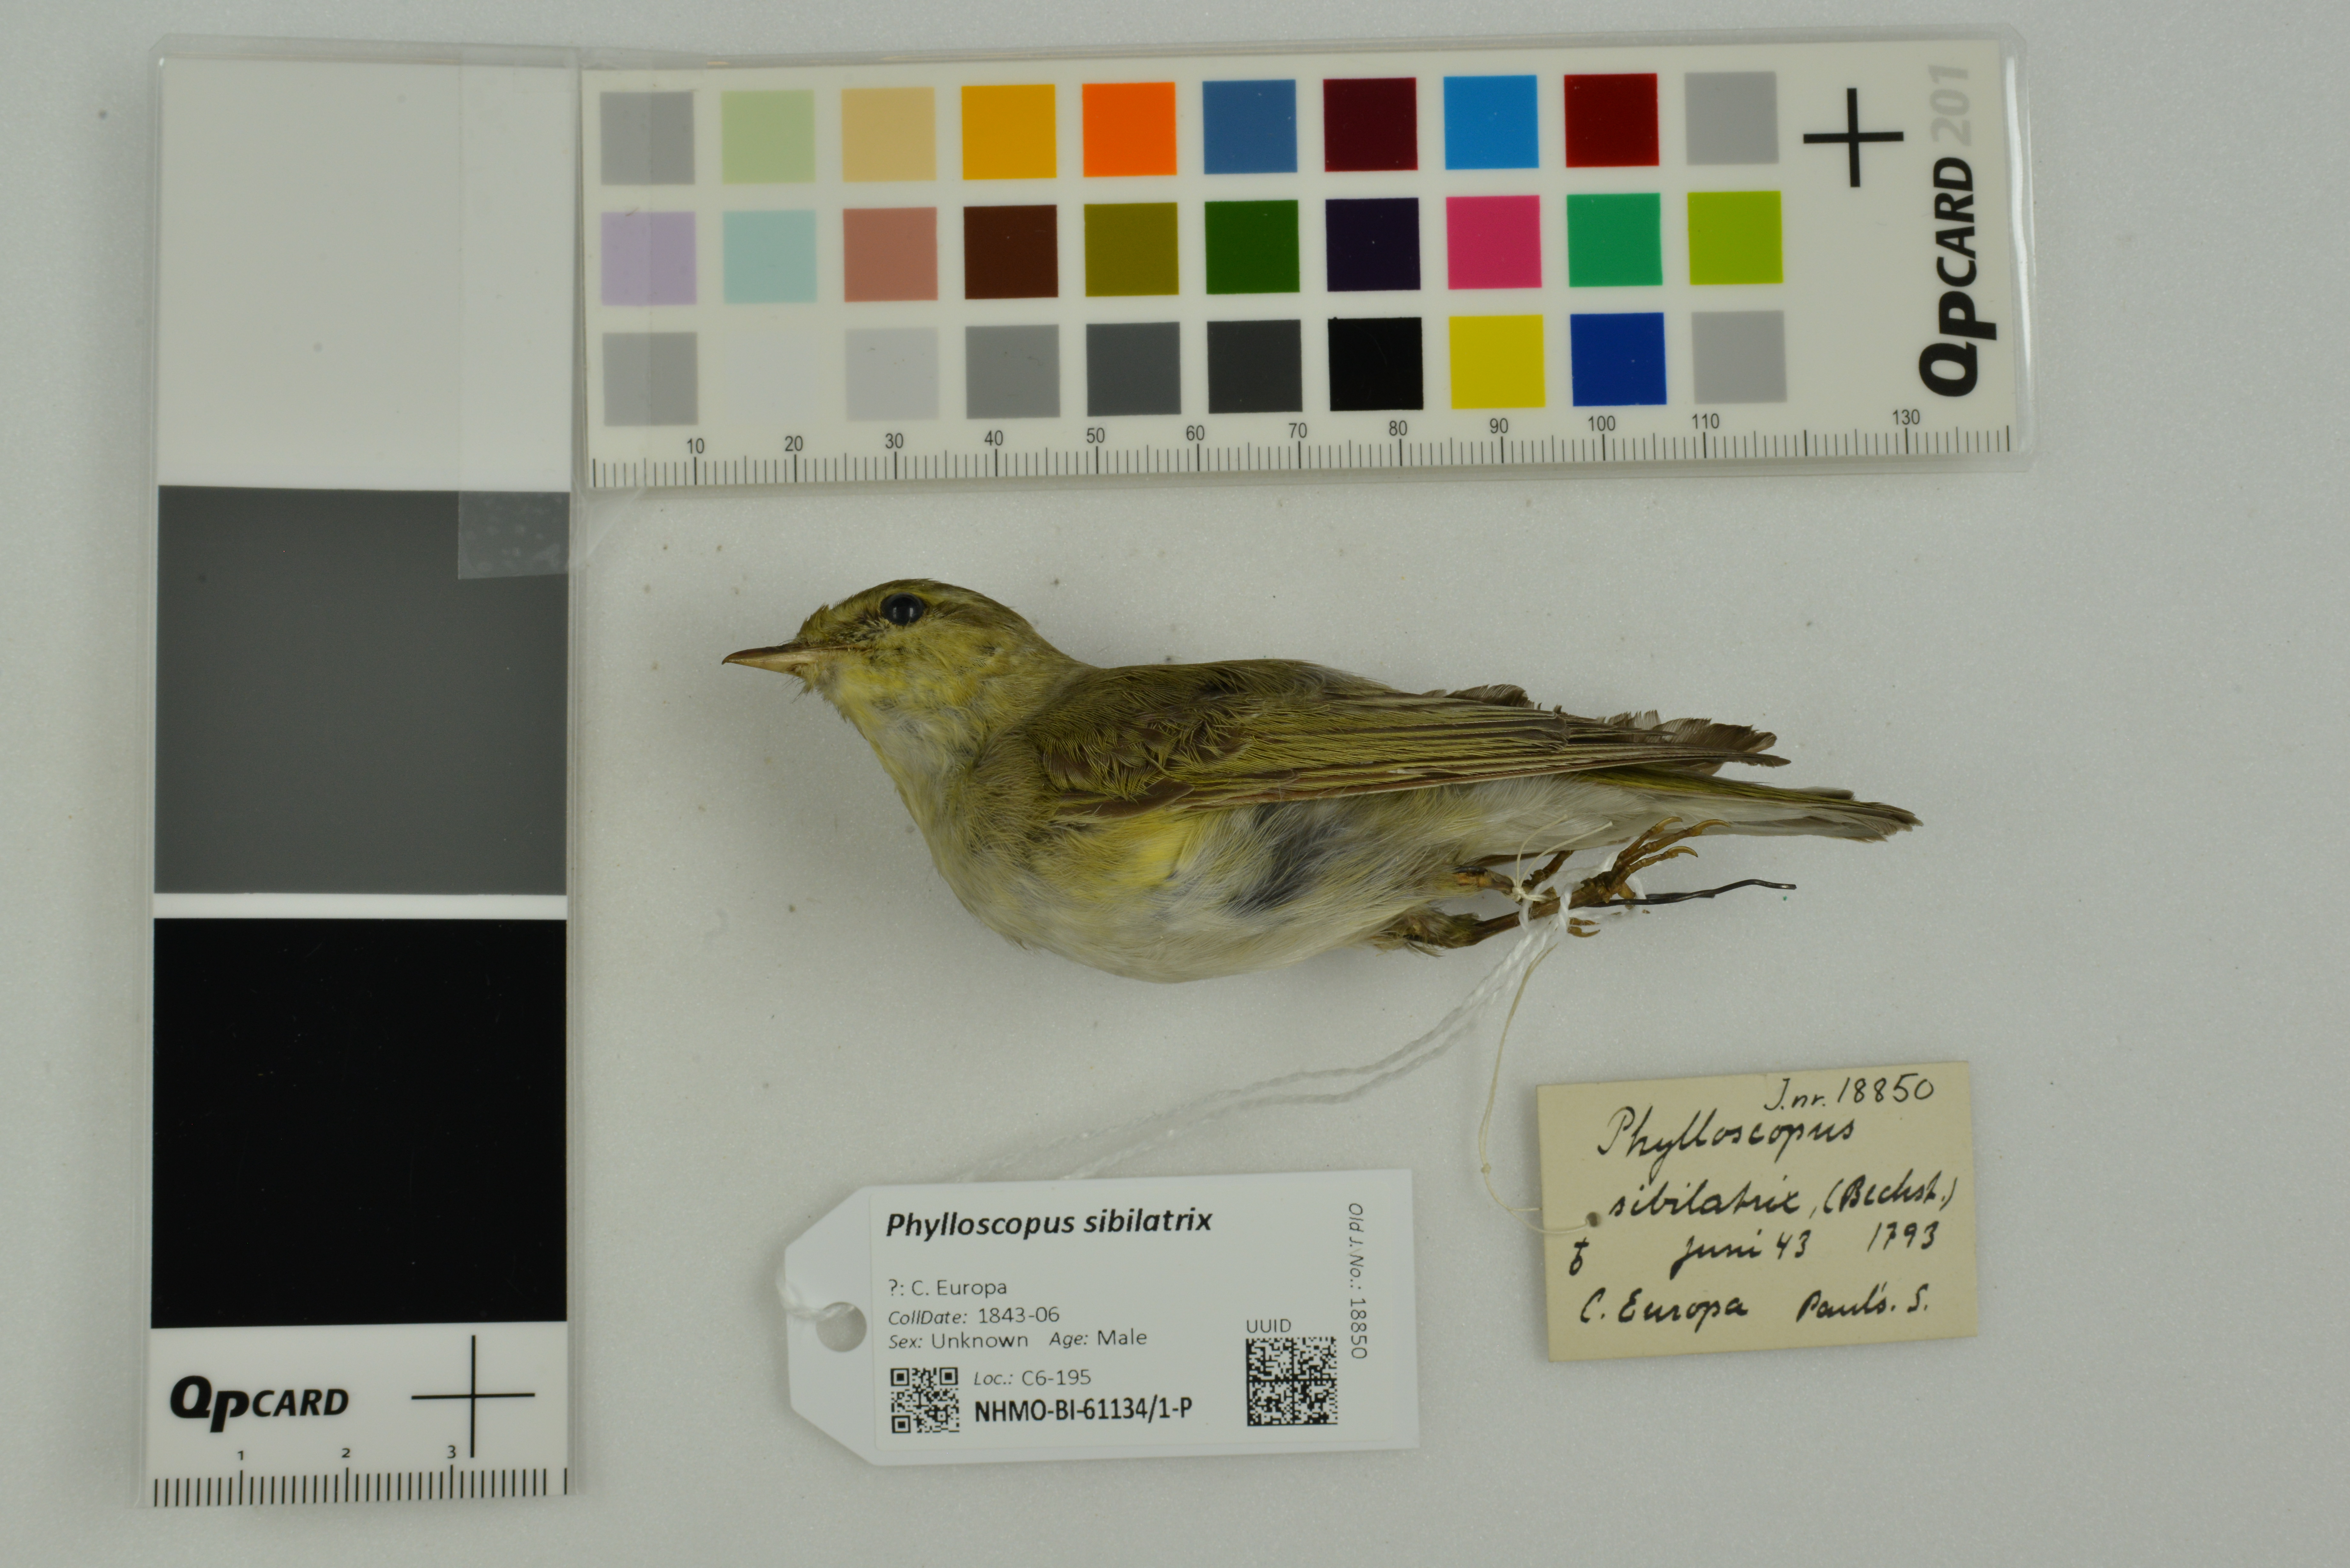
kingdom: Animalia
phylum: Chordata
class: Aves
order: Passeriformes
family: Phylloscopidae
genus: Phylloscopus
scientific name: Phylloscopus sibillatrix
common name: Wood warbler
